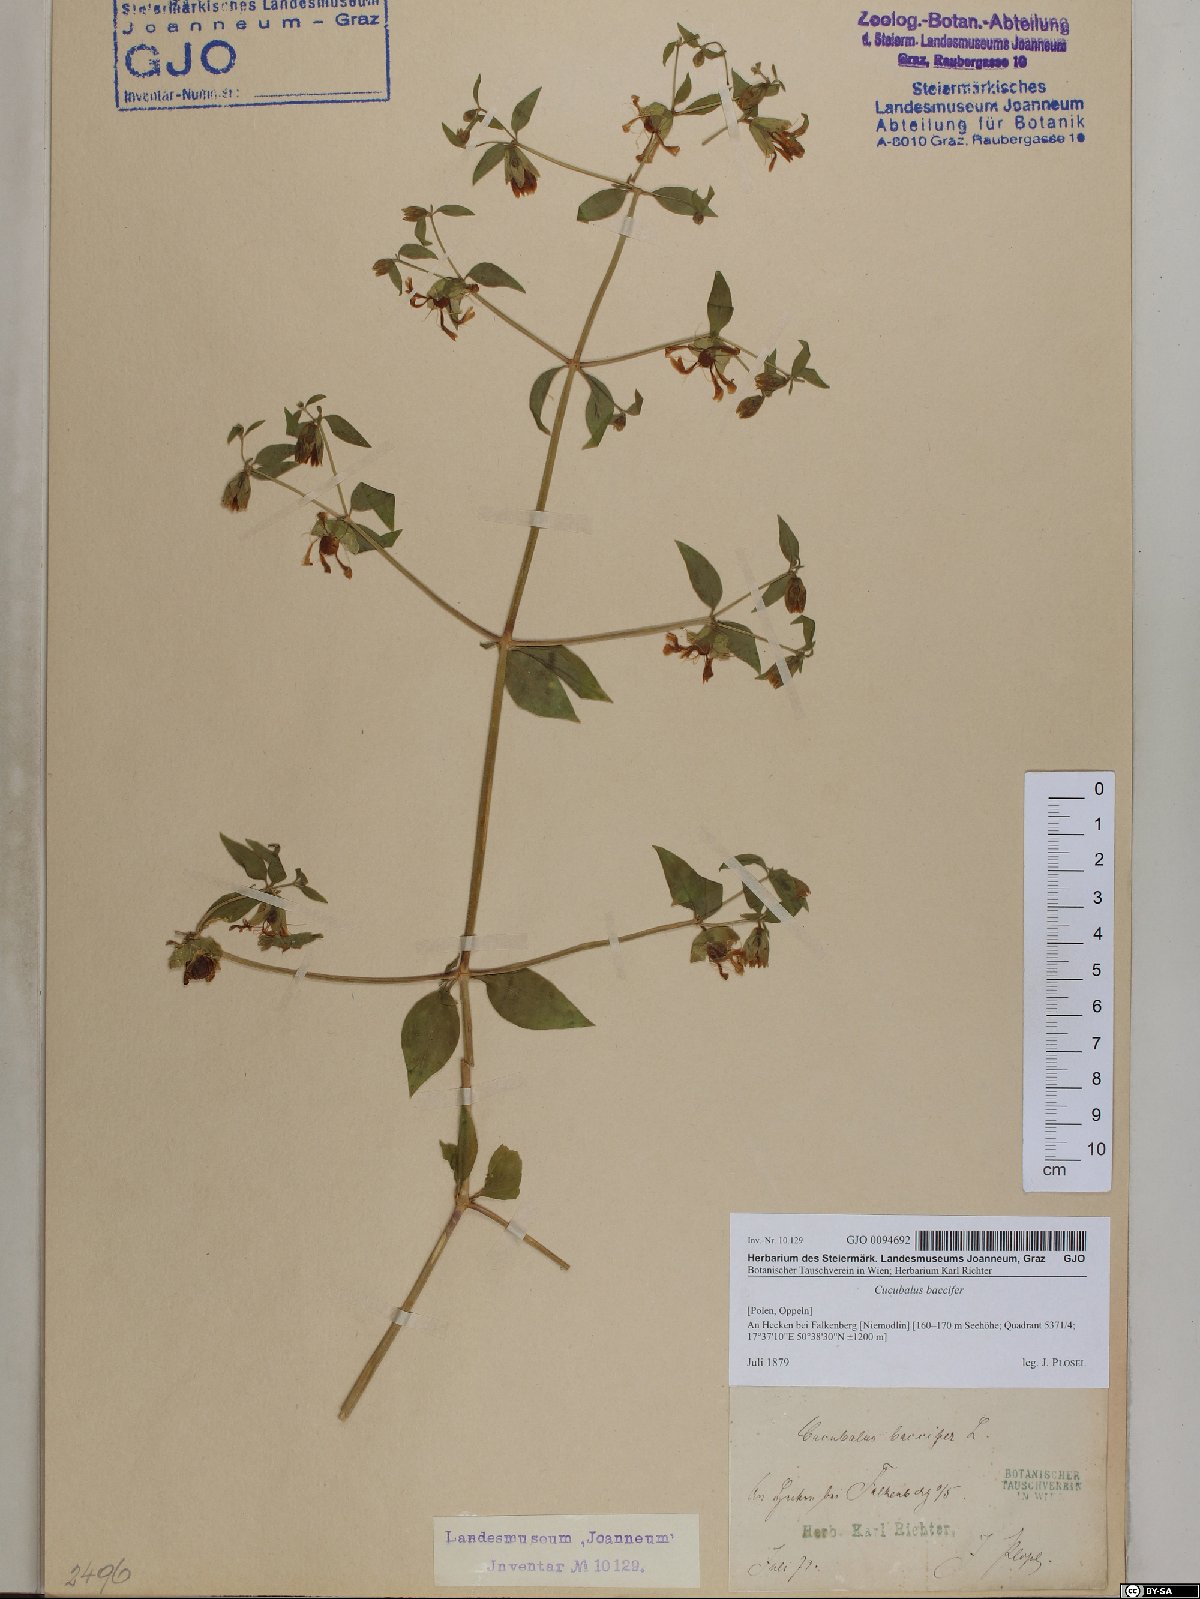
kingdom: Plantae
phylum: Tracheophyta
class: Magnoliopsida
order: Caryophyllales
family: Caryophyllaceae
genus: Silene
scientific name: Silene baccifera
